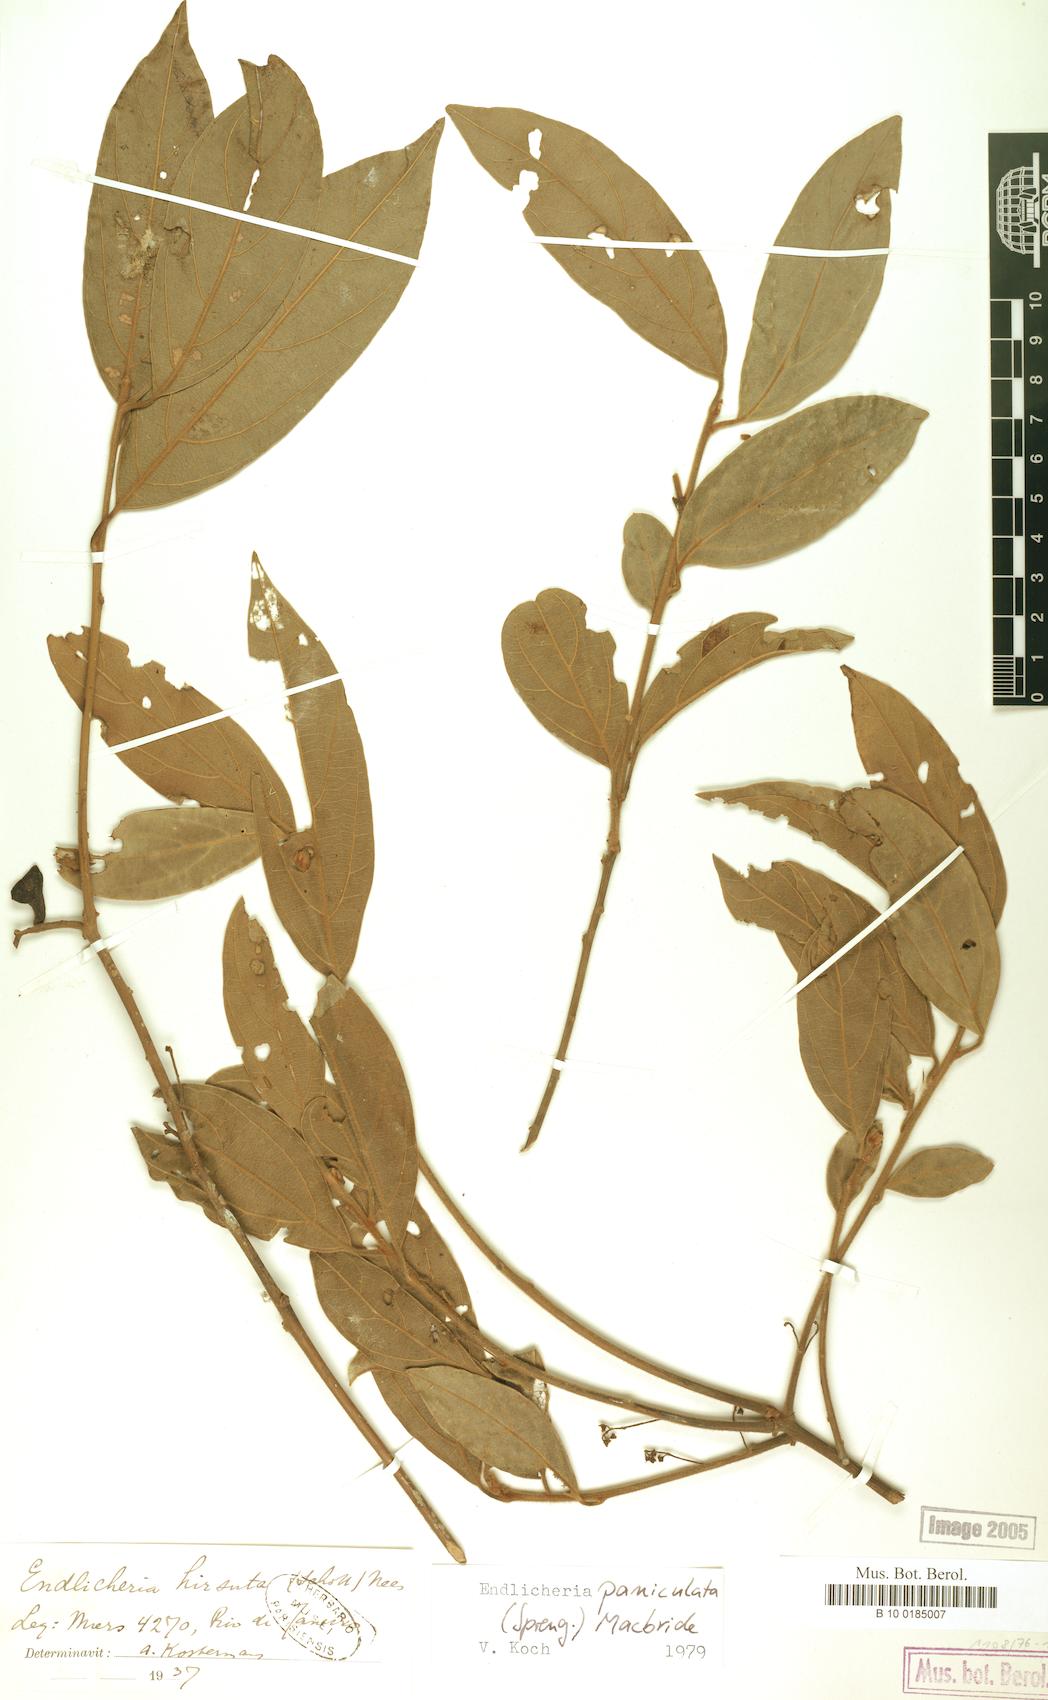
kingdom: Plantae
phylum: Tracheophyta
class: Magnoliopsida
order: Laurales
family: Lauraceae
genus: Endlicheria
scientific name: Endlicheria paniculata
